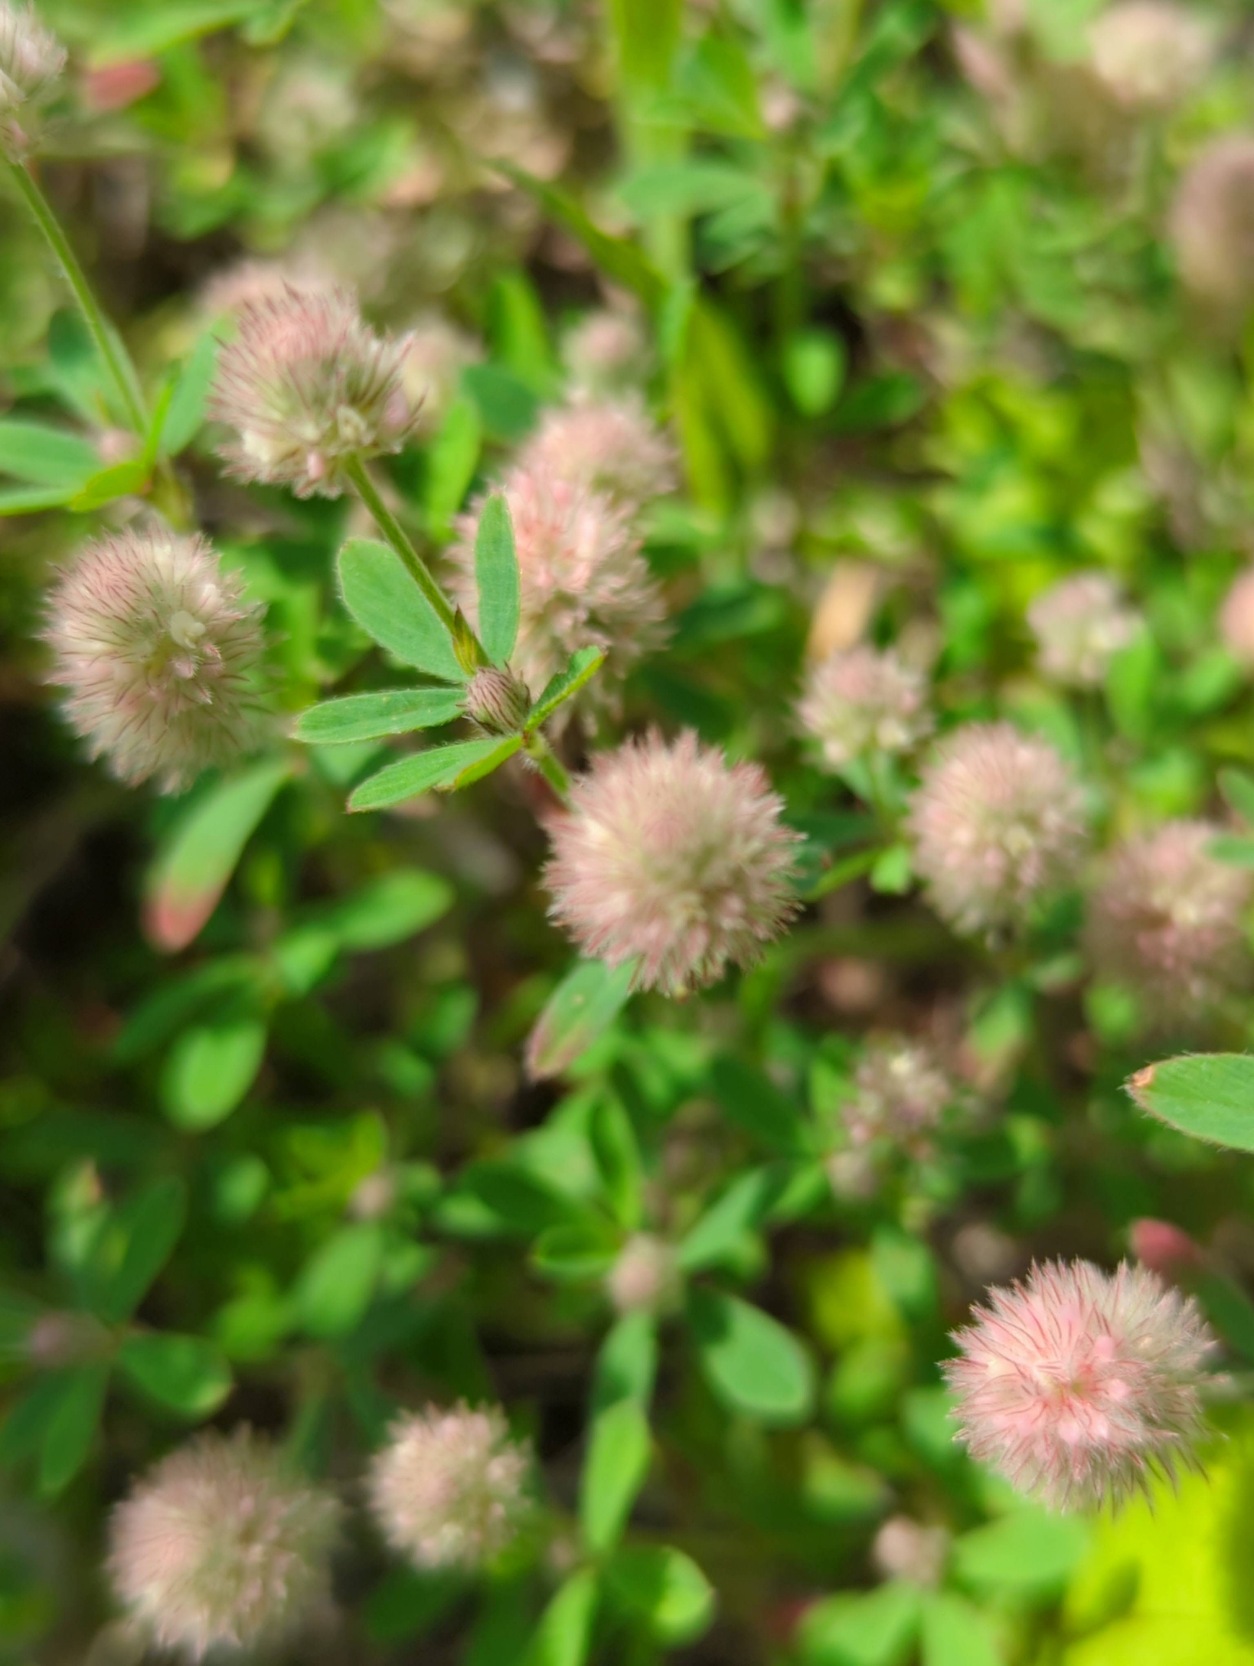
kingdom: Plantae
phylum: Tracheophyta
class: Magnoliopsida
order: Fabales
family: Fabaceae
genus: Trifolium
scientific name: Trifolium arvense
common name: Hare-kløver
